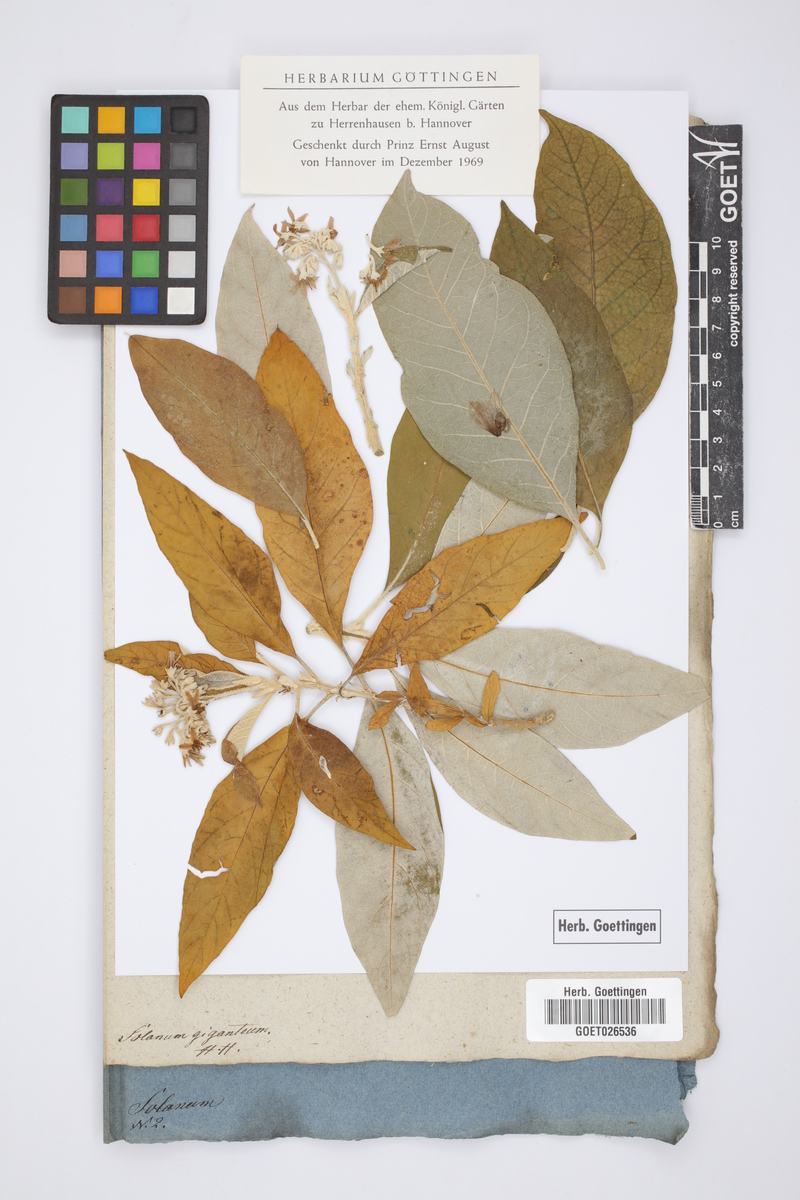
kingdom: Plantae
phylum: Tracheophyta
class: Magnoliopsida
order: Solanales
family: Solanaceae
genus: Solanum
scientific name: Solanum giganteum
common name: Healing-leaf-tree
